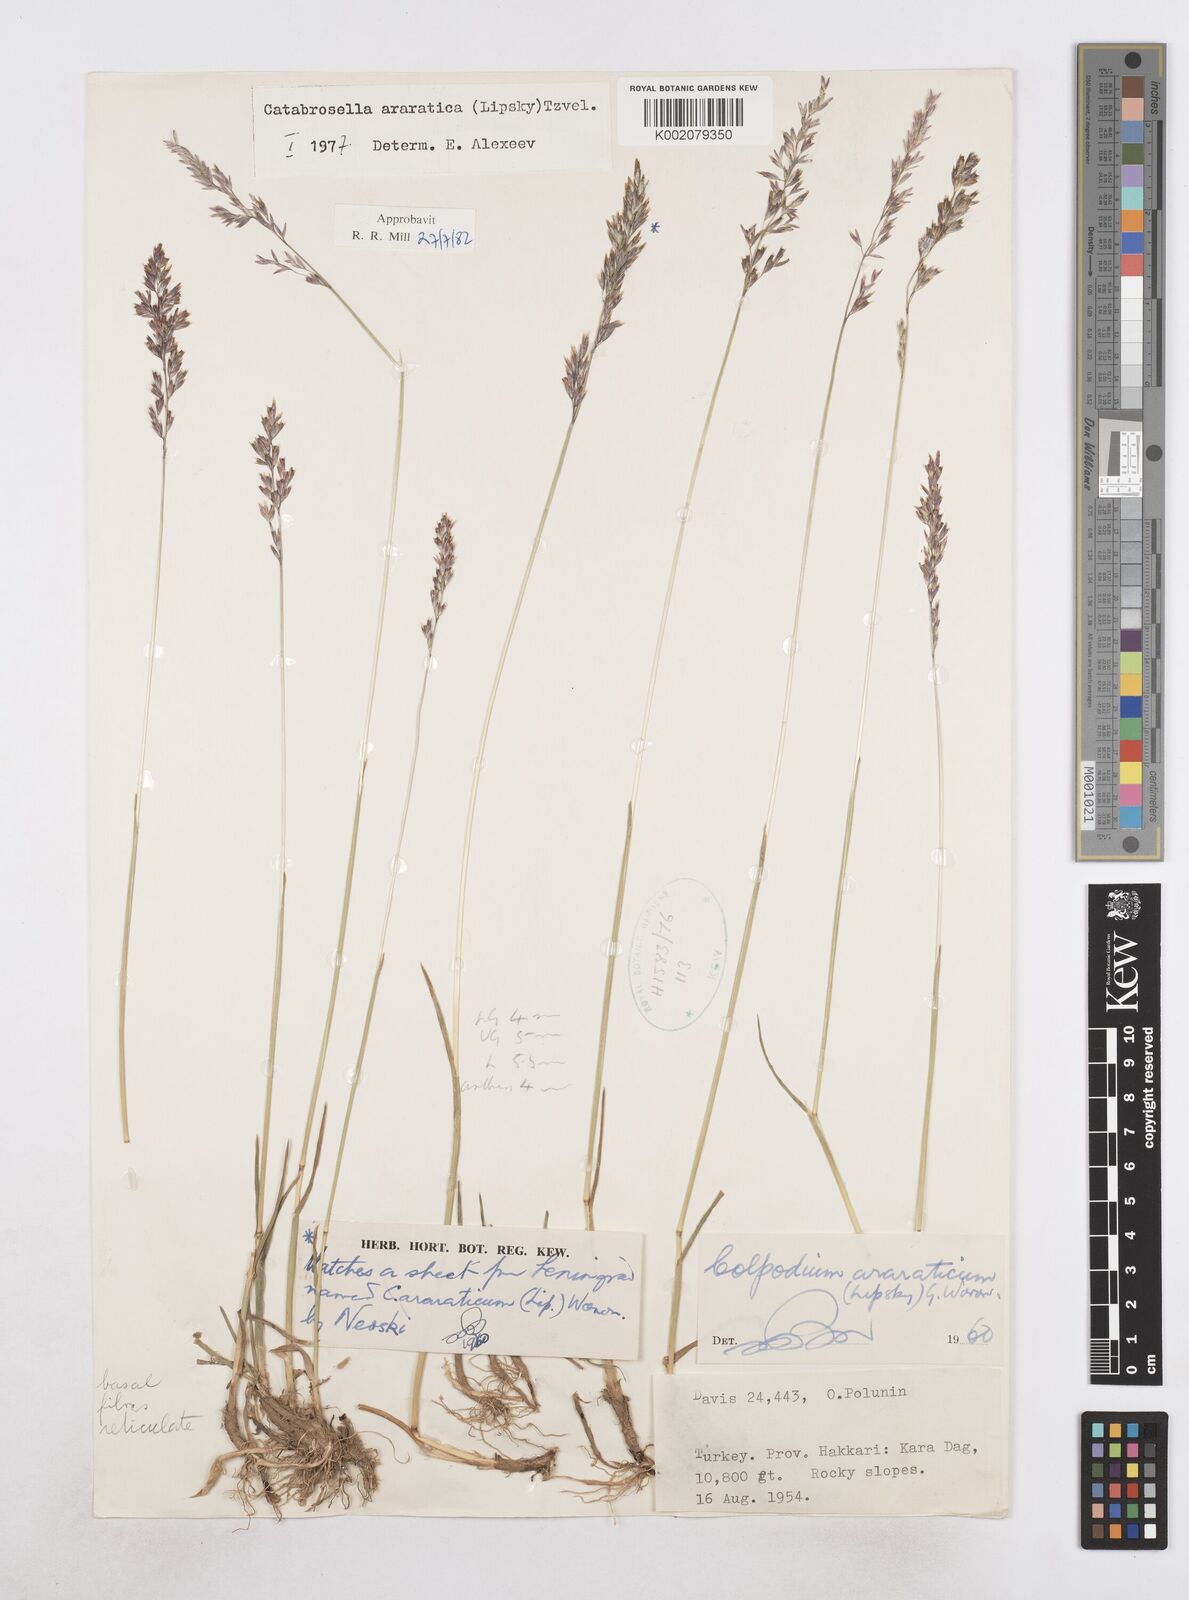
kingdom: Plantae
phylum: Tracheophyta
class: Liliopsida
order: Poales
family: Poaceae
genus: Hyalopodium
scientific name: Hyalopodium araraticum
